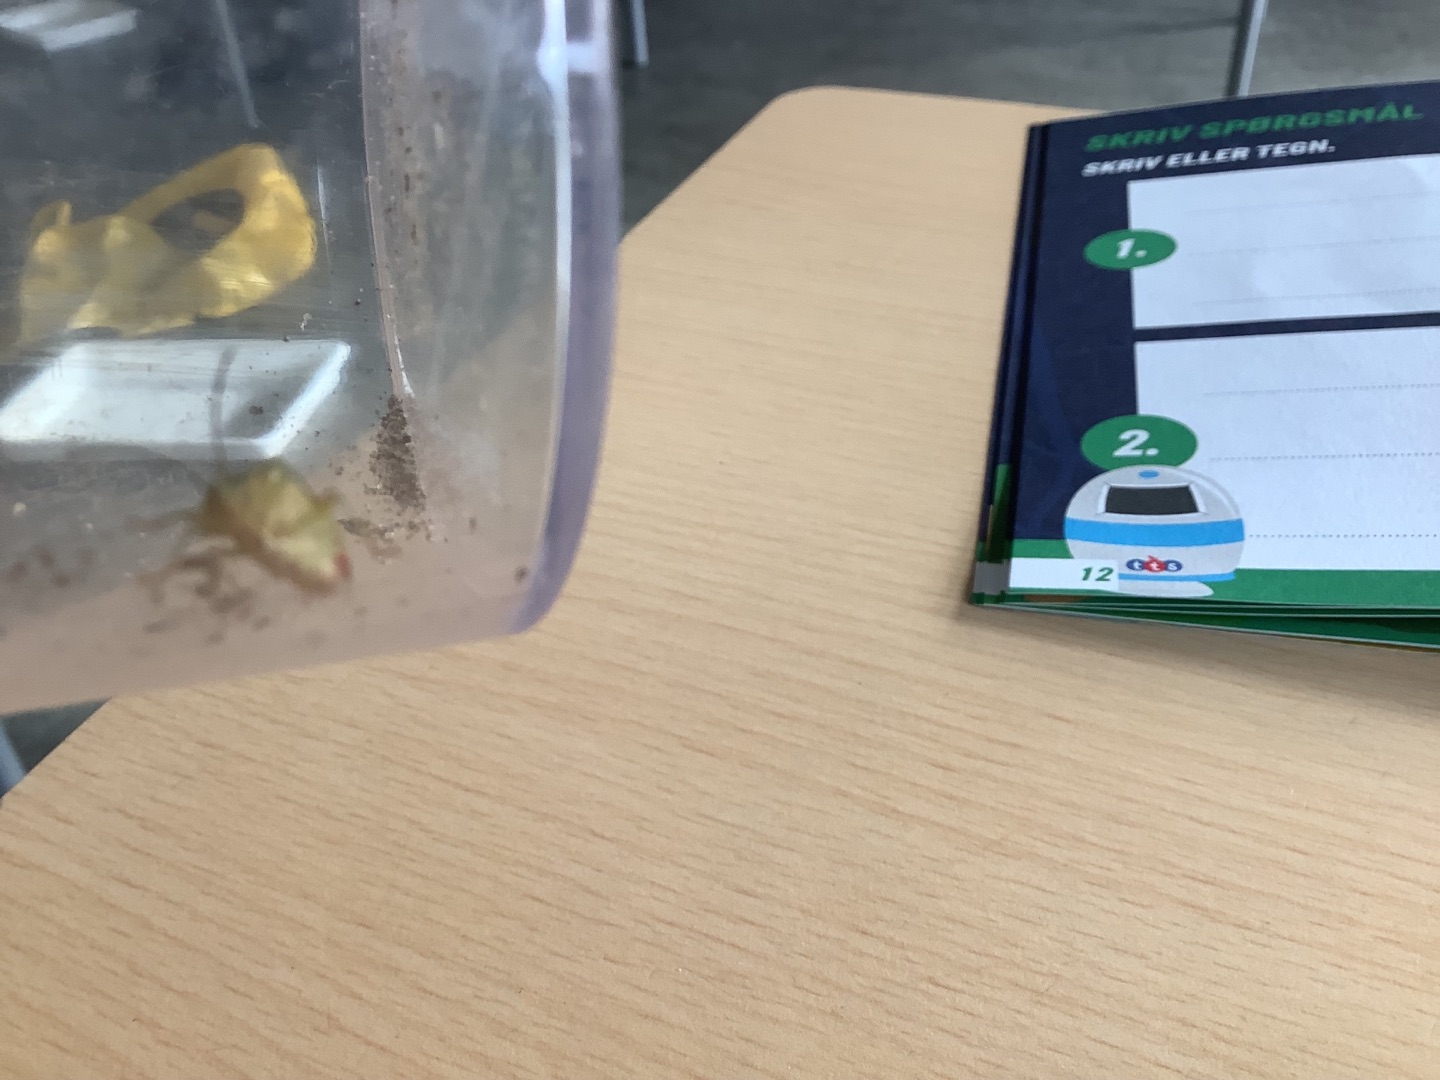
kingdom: Animalia
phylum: Arthropoda
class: Insecta
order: Hemiptera
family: Acanthosomatidae
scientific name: Acanthosomatidae
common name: Løvtæger
